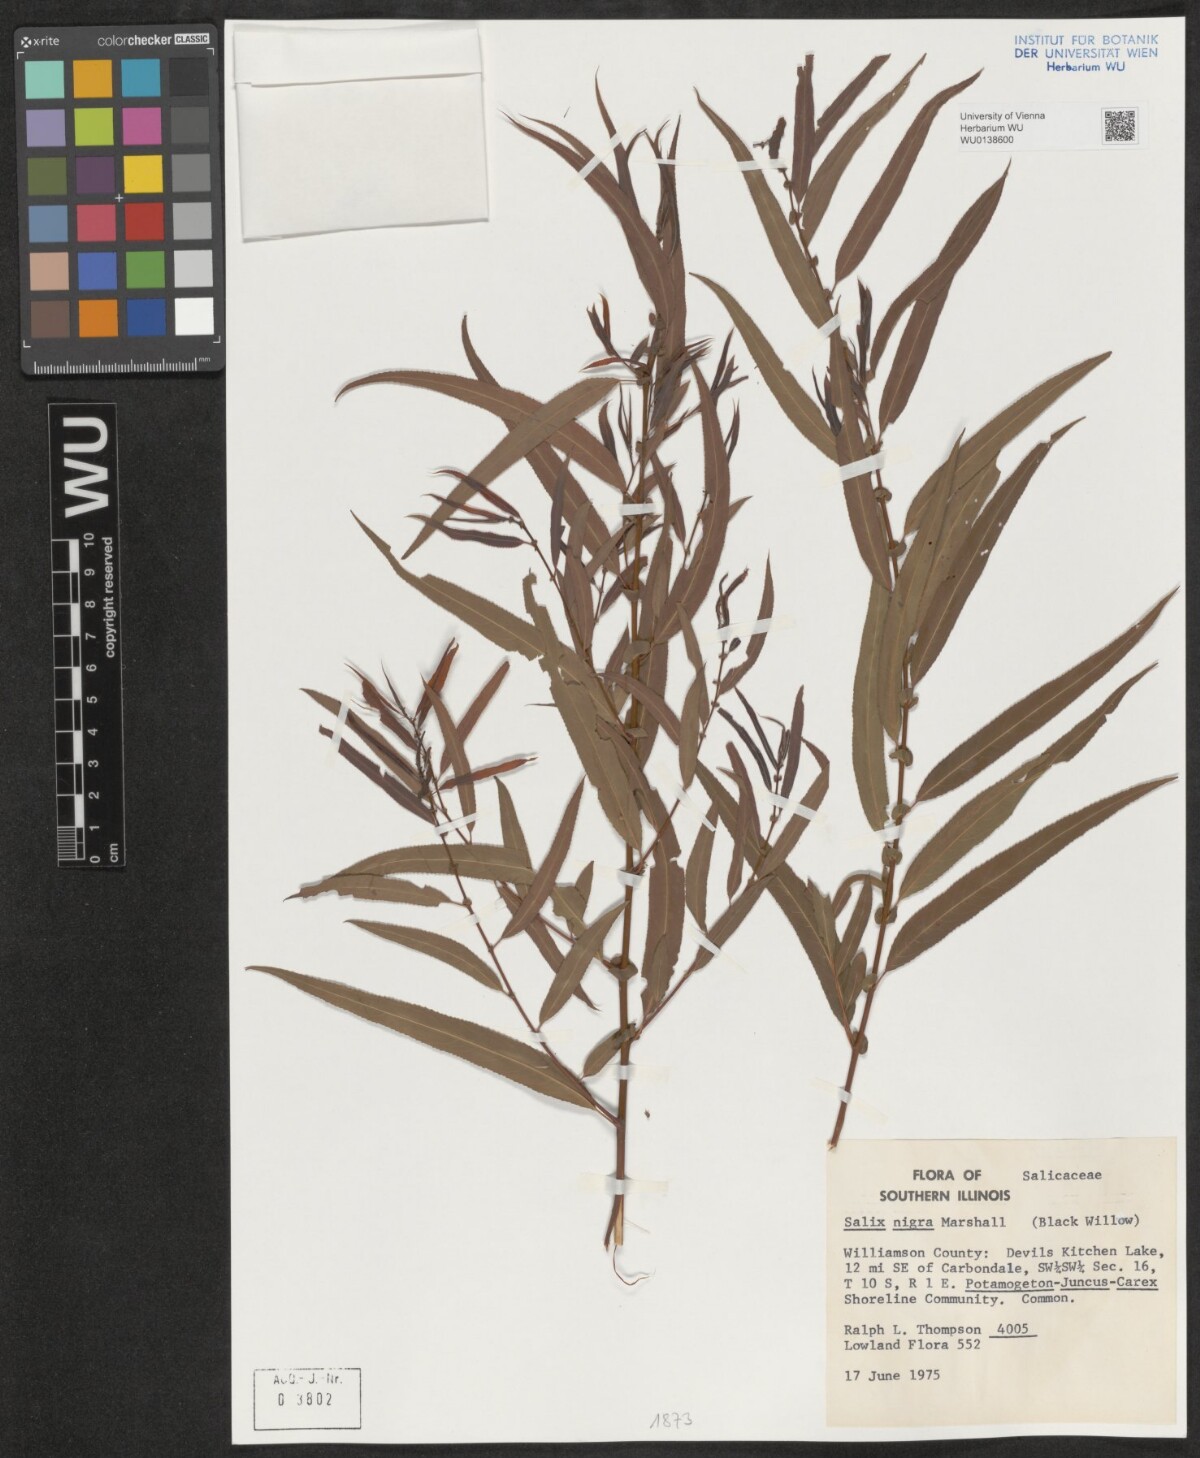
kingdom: Plantae
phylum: Tracheophyta
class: Magnoliopsida
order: Malpighiales
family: Salicaceae
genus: Salix
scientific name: Salix nigra
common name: Black willow
